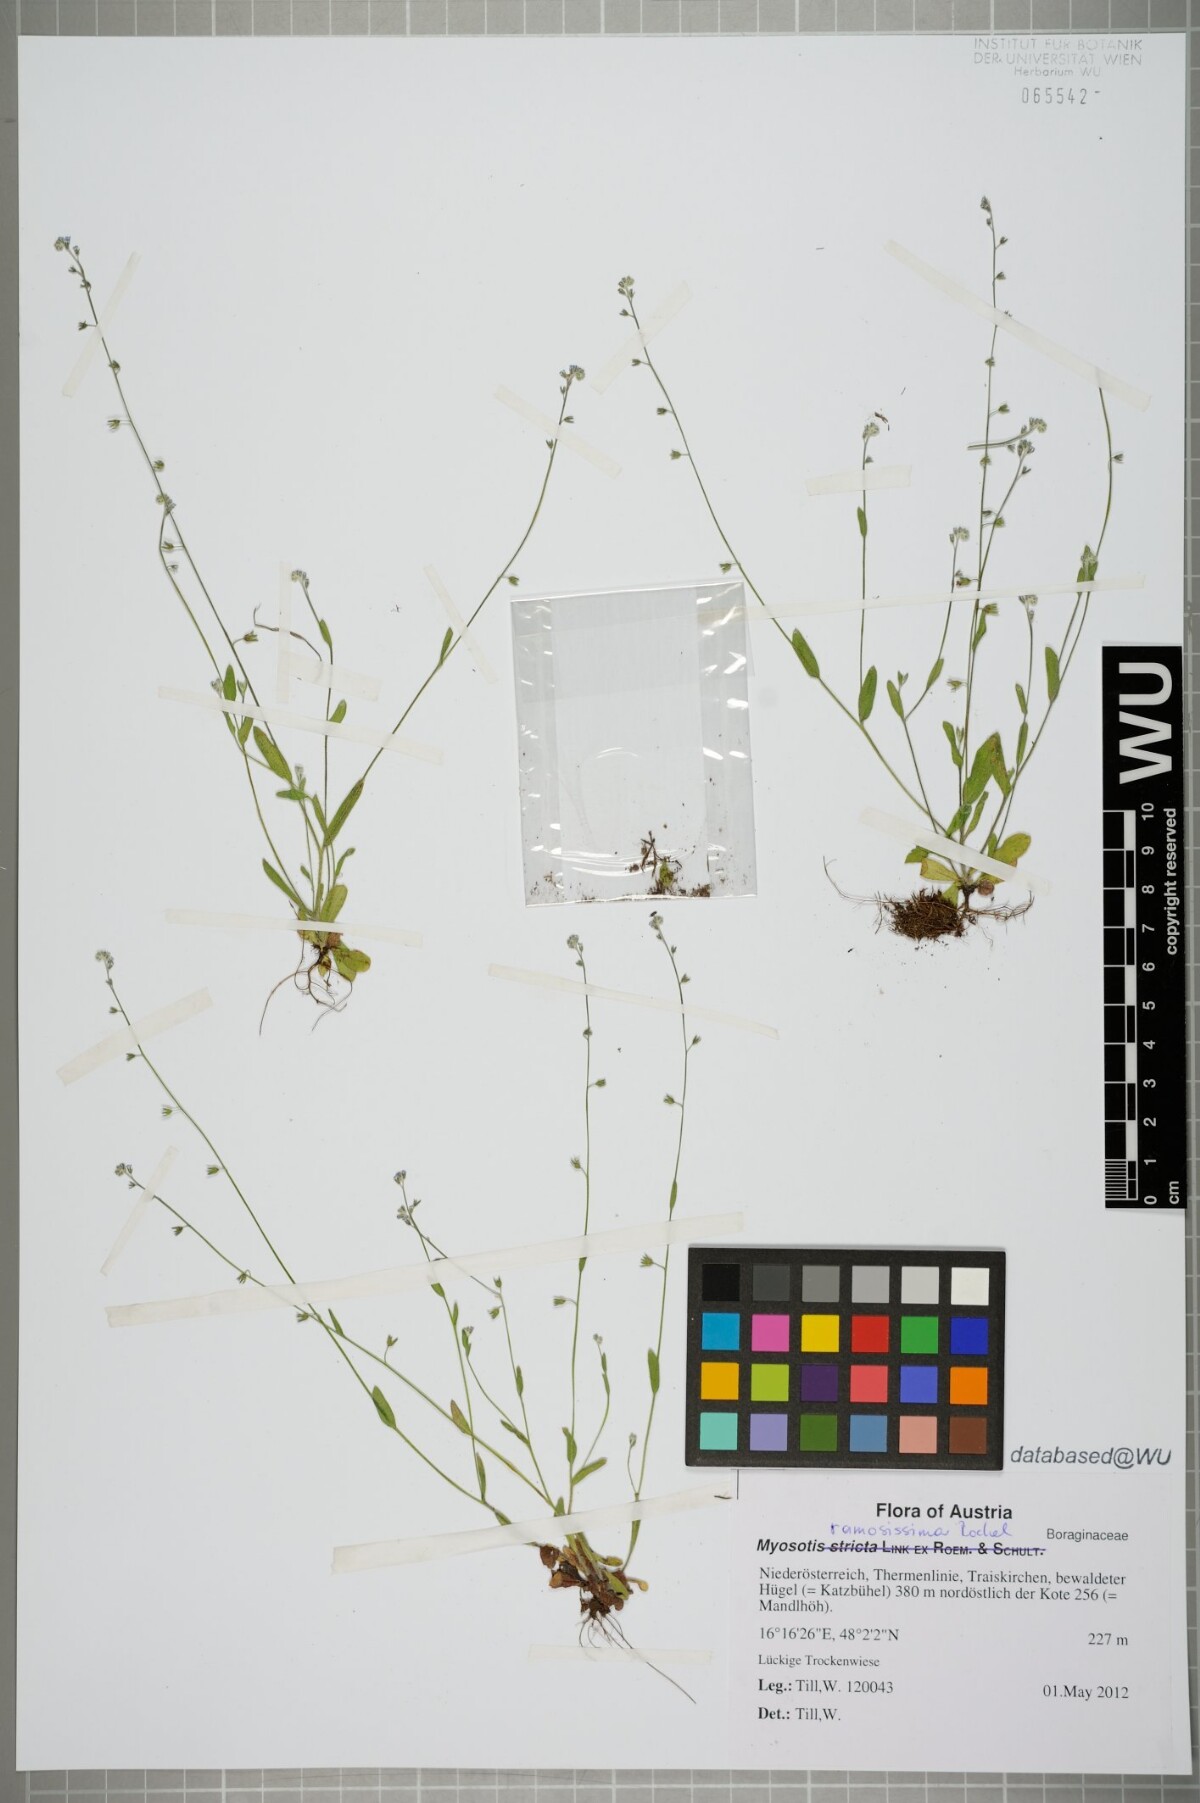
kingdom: Plantae
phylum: Tracheophyta
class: Magnoliopsida
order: Boraginales
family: Boraginaceae
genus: Myosotis
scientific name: Myosotis ramosissima
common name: Early forget-me-not
